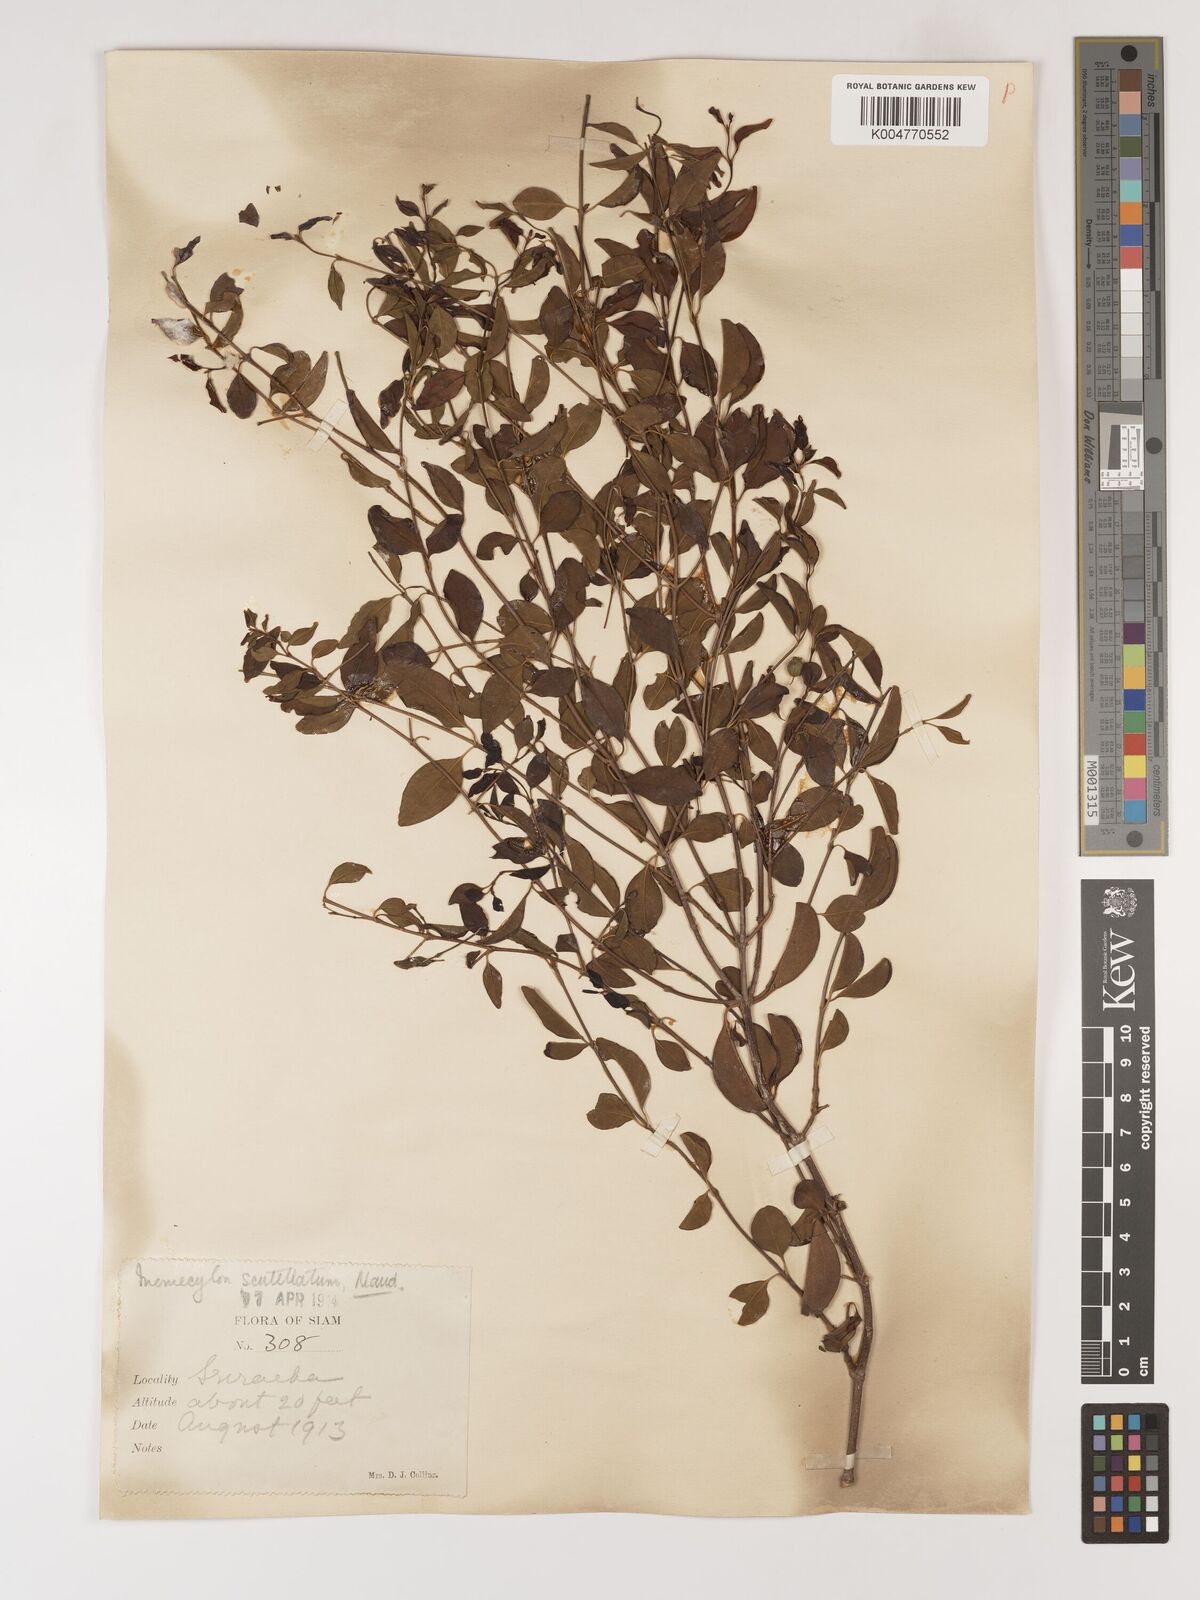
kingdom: Plantae
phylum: Tracheophyta
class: Magnoliopsida
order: Myrtales
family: Melastomataceae
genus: Memecylon
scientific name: Memecylon scutellatum
